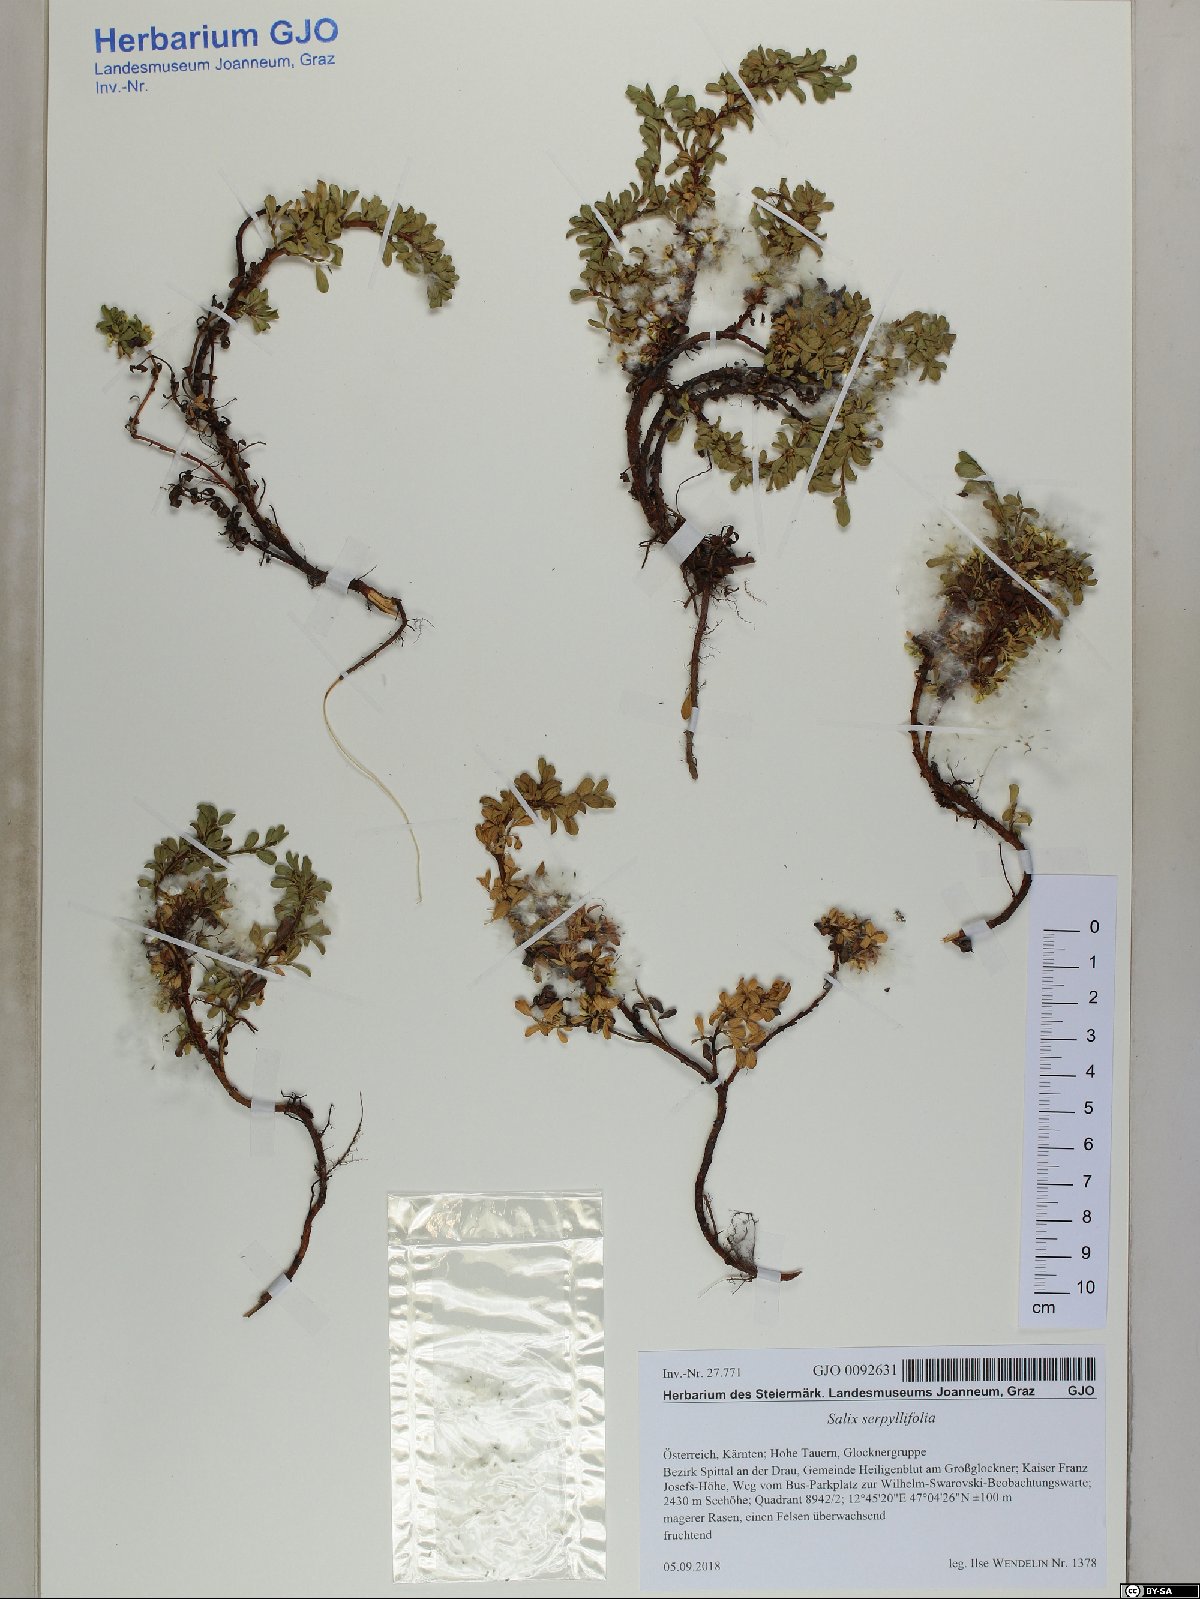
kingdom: Plantae
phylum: Tracheophyta
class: Magnoliopsida
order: Malpighiales
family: Salicaceae
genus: Salix
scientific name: Salix serpillifolia
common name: Thyme-leaf willow
